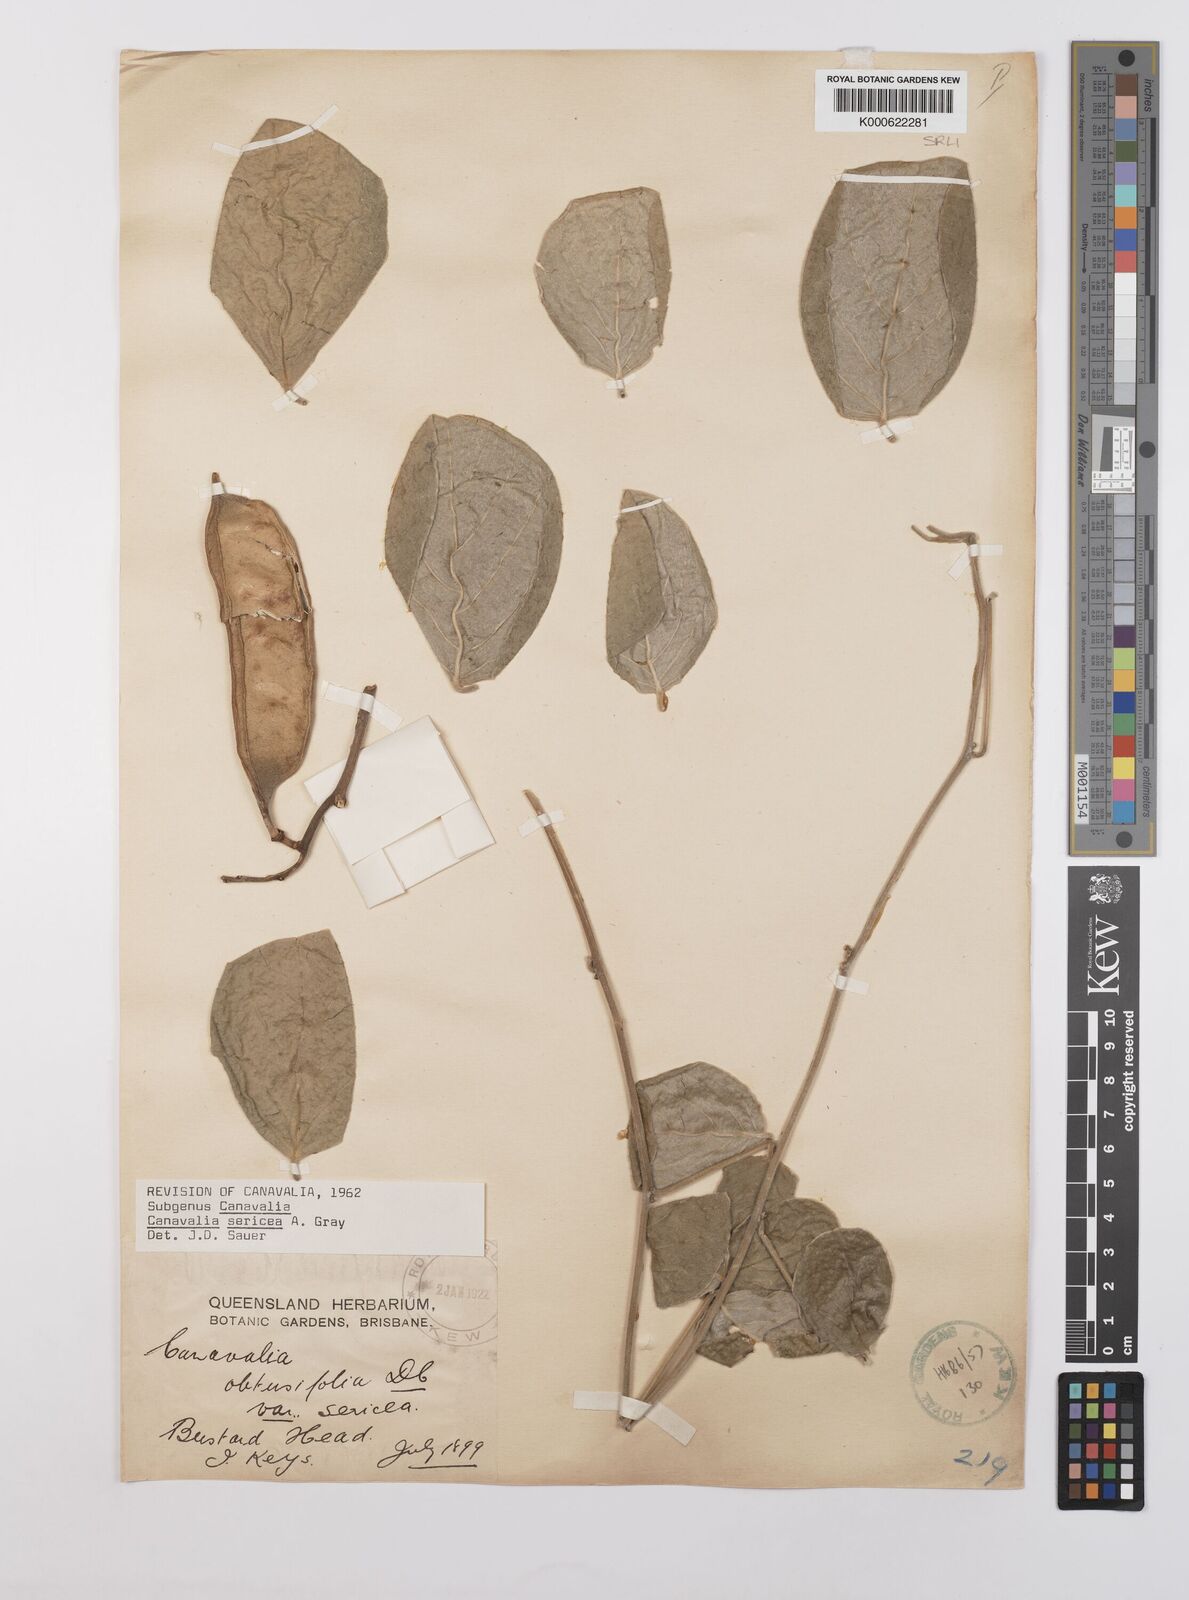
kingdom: Plantae
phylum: Tracheophyta
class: Magnoliopsida
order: Fabales
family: Fabaceae
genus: Canavalia
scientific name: Canavalia sericea
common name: Silky jackbean
